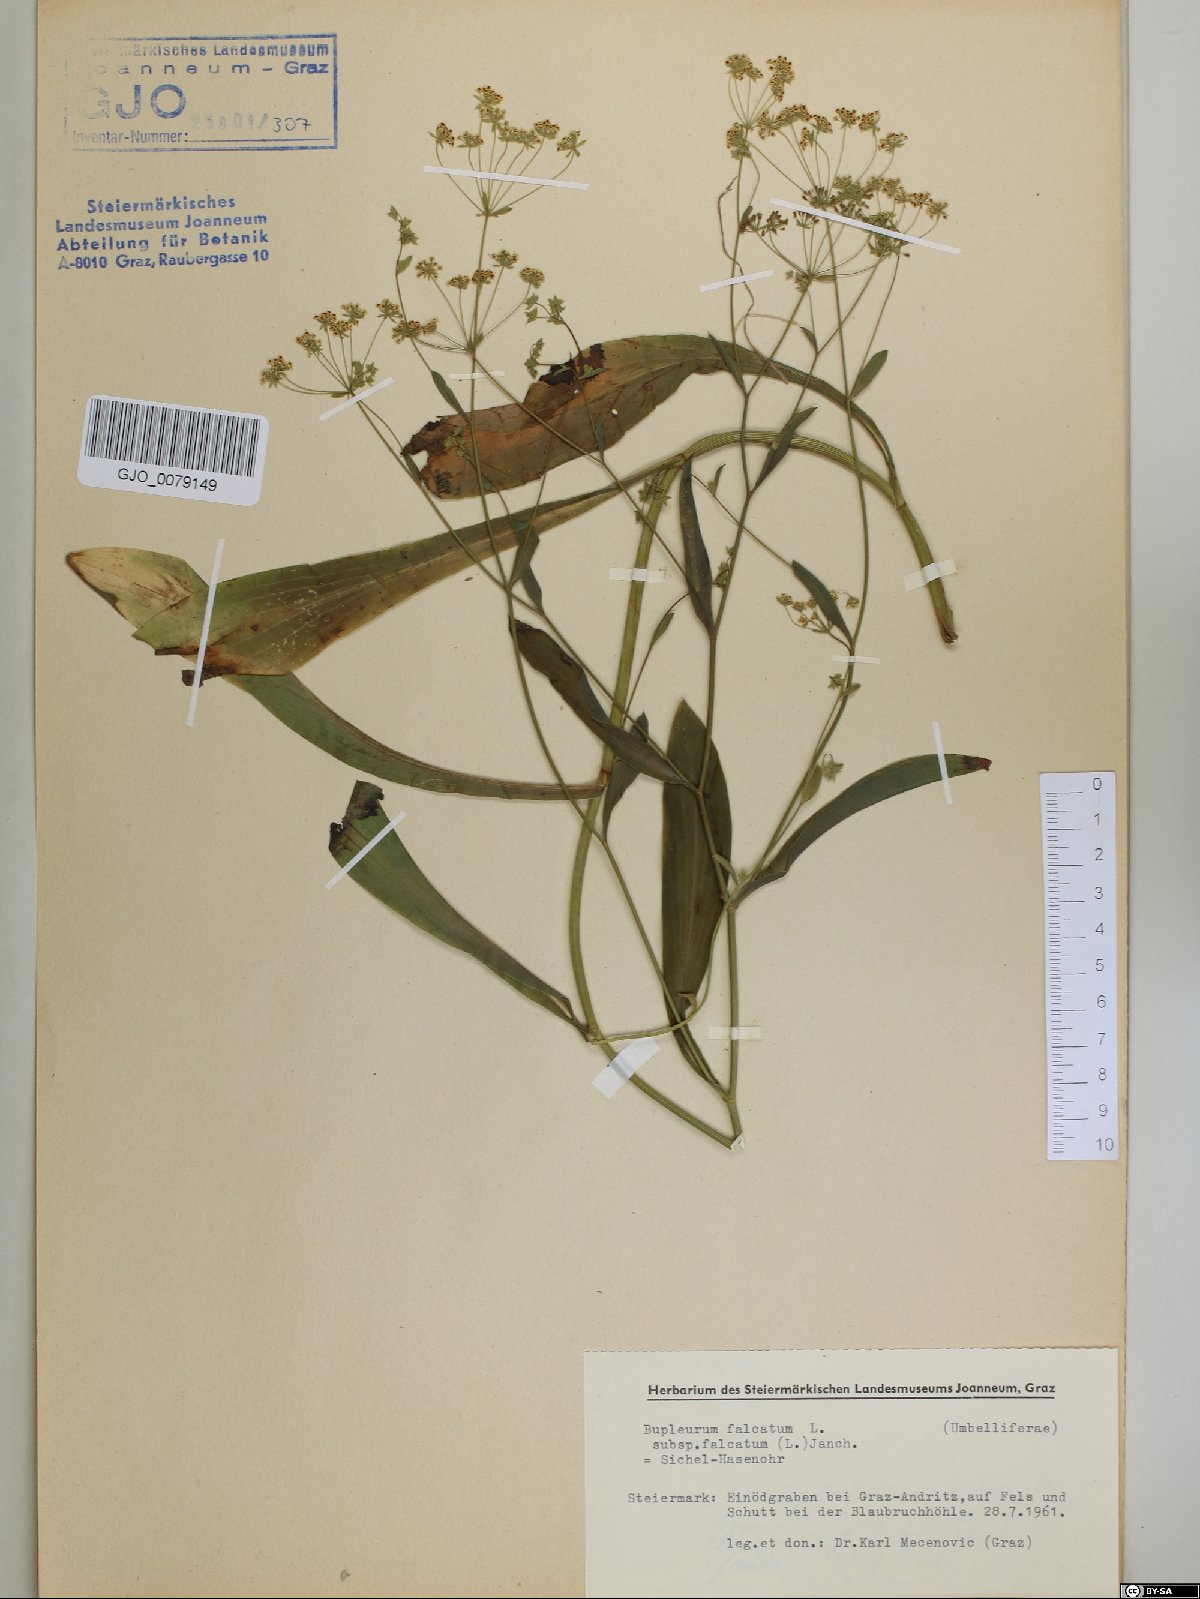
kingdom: Plantae
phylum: Tracheophyta
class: Magnoliopsida
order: Apiales
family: Apiaceae
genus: Bupleurum
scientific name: Bupleurum falcatum
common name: Sickle-leaved hare's-ear
